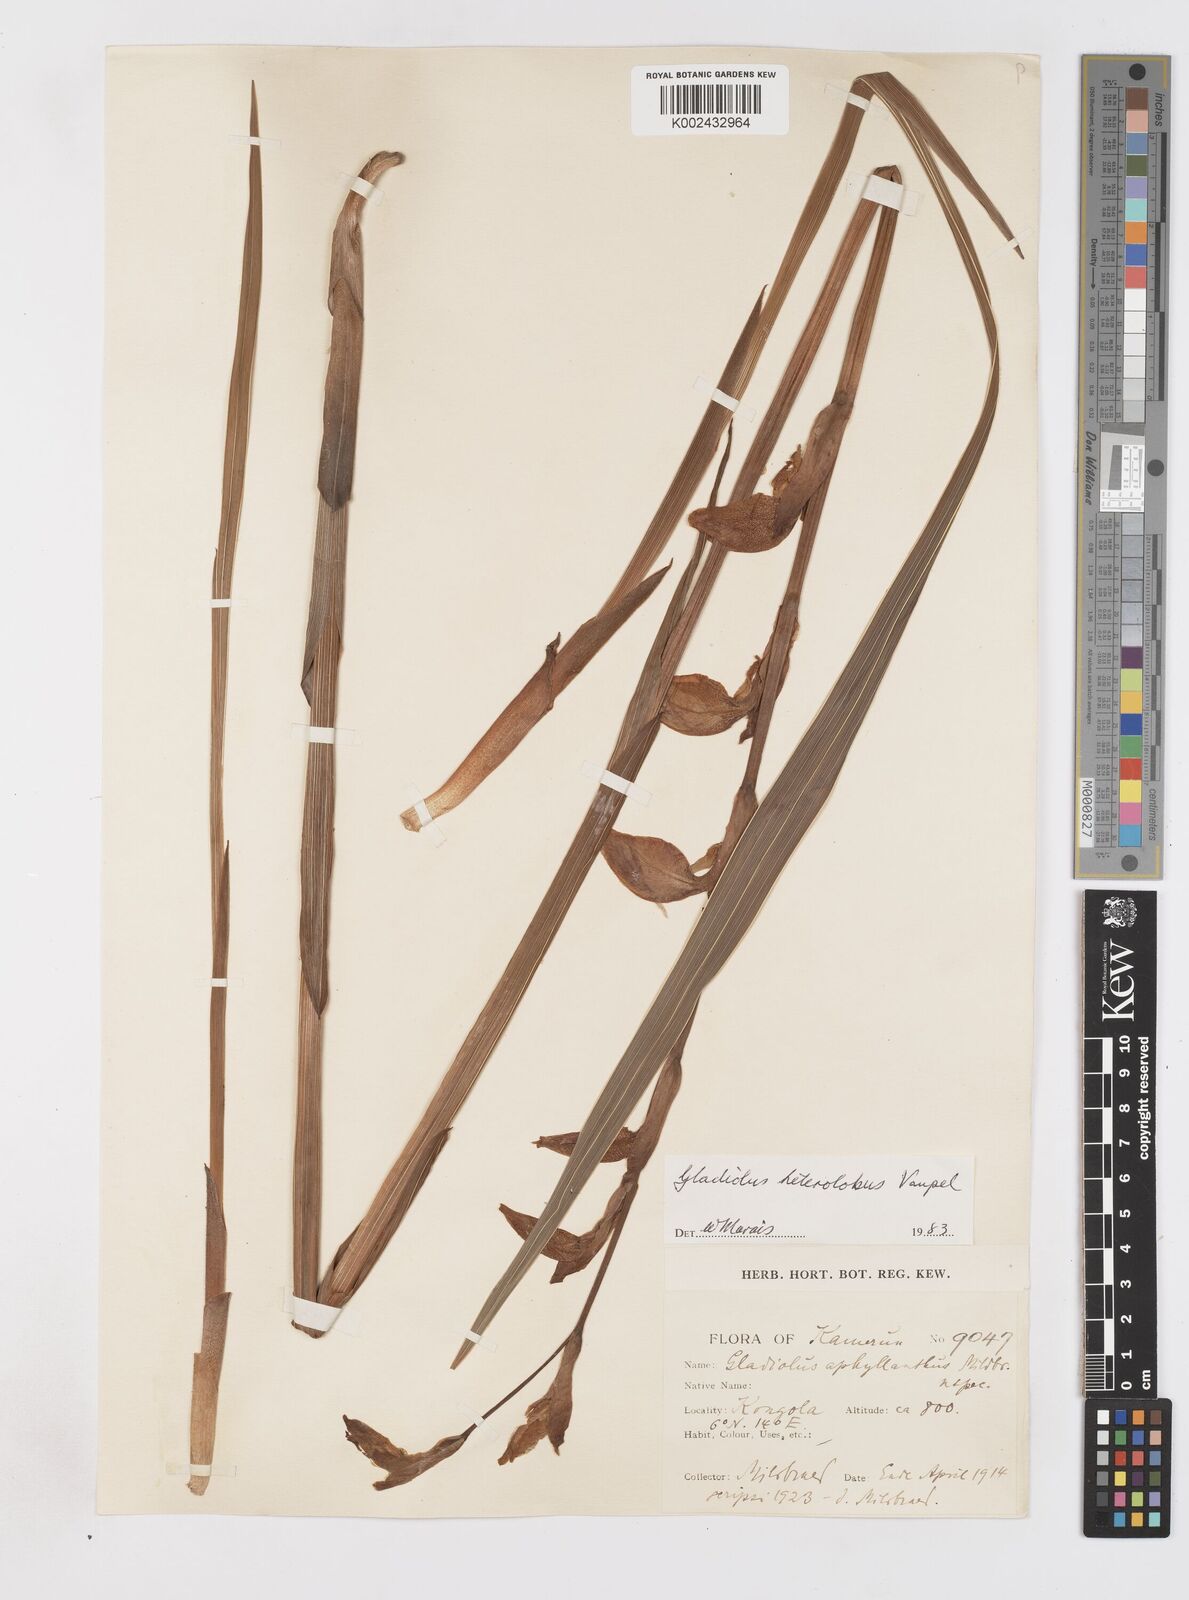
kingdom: Plantae
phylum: Tracheophyta
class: Liliopsida
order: Asparagales
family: Iridaceae
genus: Gladiolus
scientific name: Gladiolus roseolus
